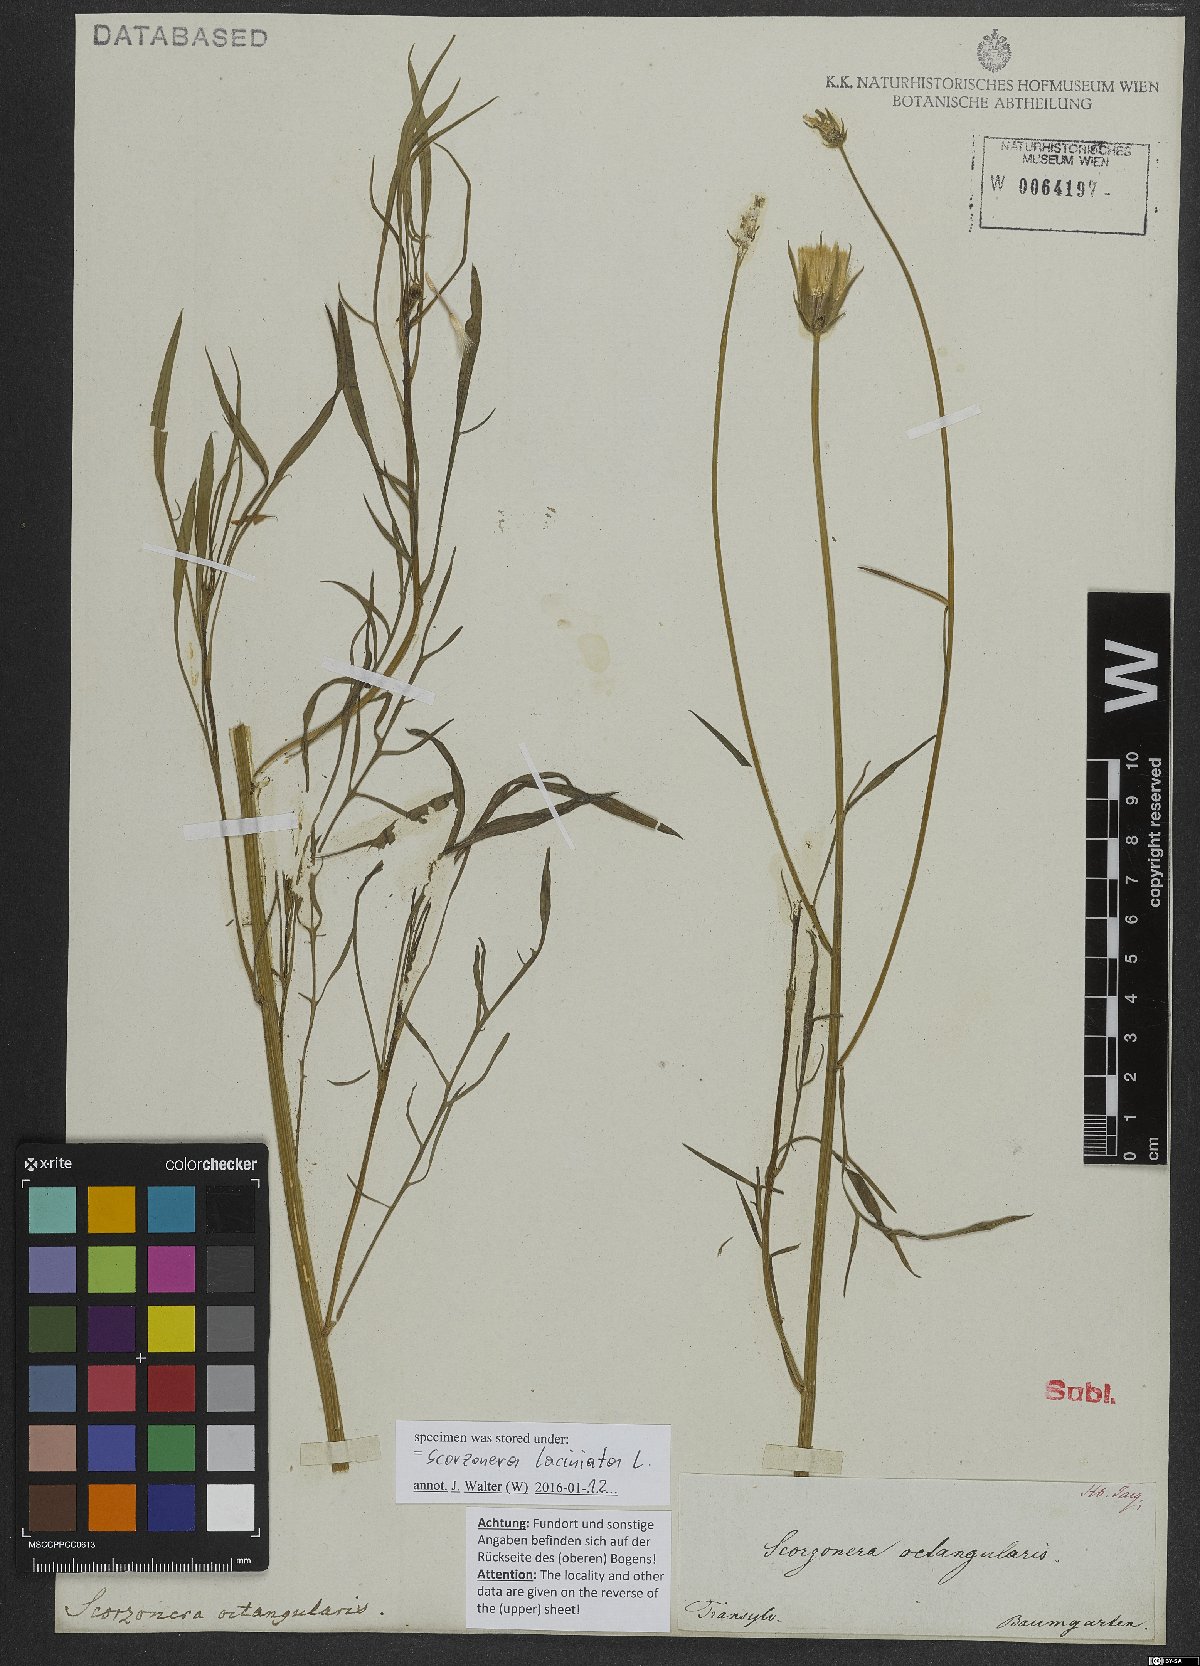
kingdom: Plantae
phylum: Tracheophyta
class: Magnoliopsida
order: Asterales
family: Asteraceae
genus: Scorzonera
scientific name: Scorzonera laciniata
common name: Cutleaf vipergrass
